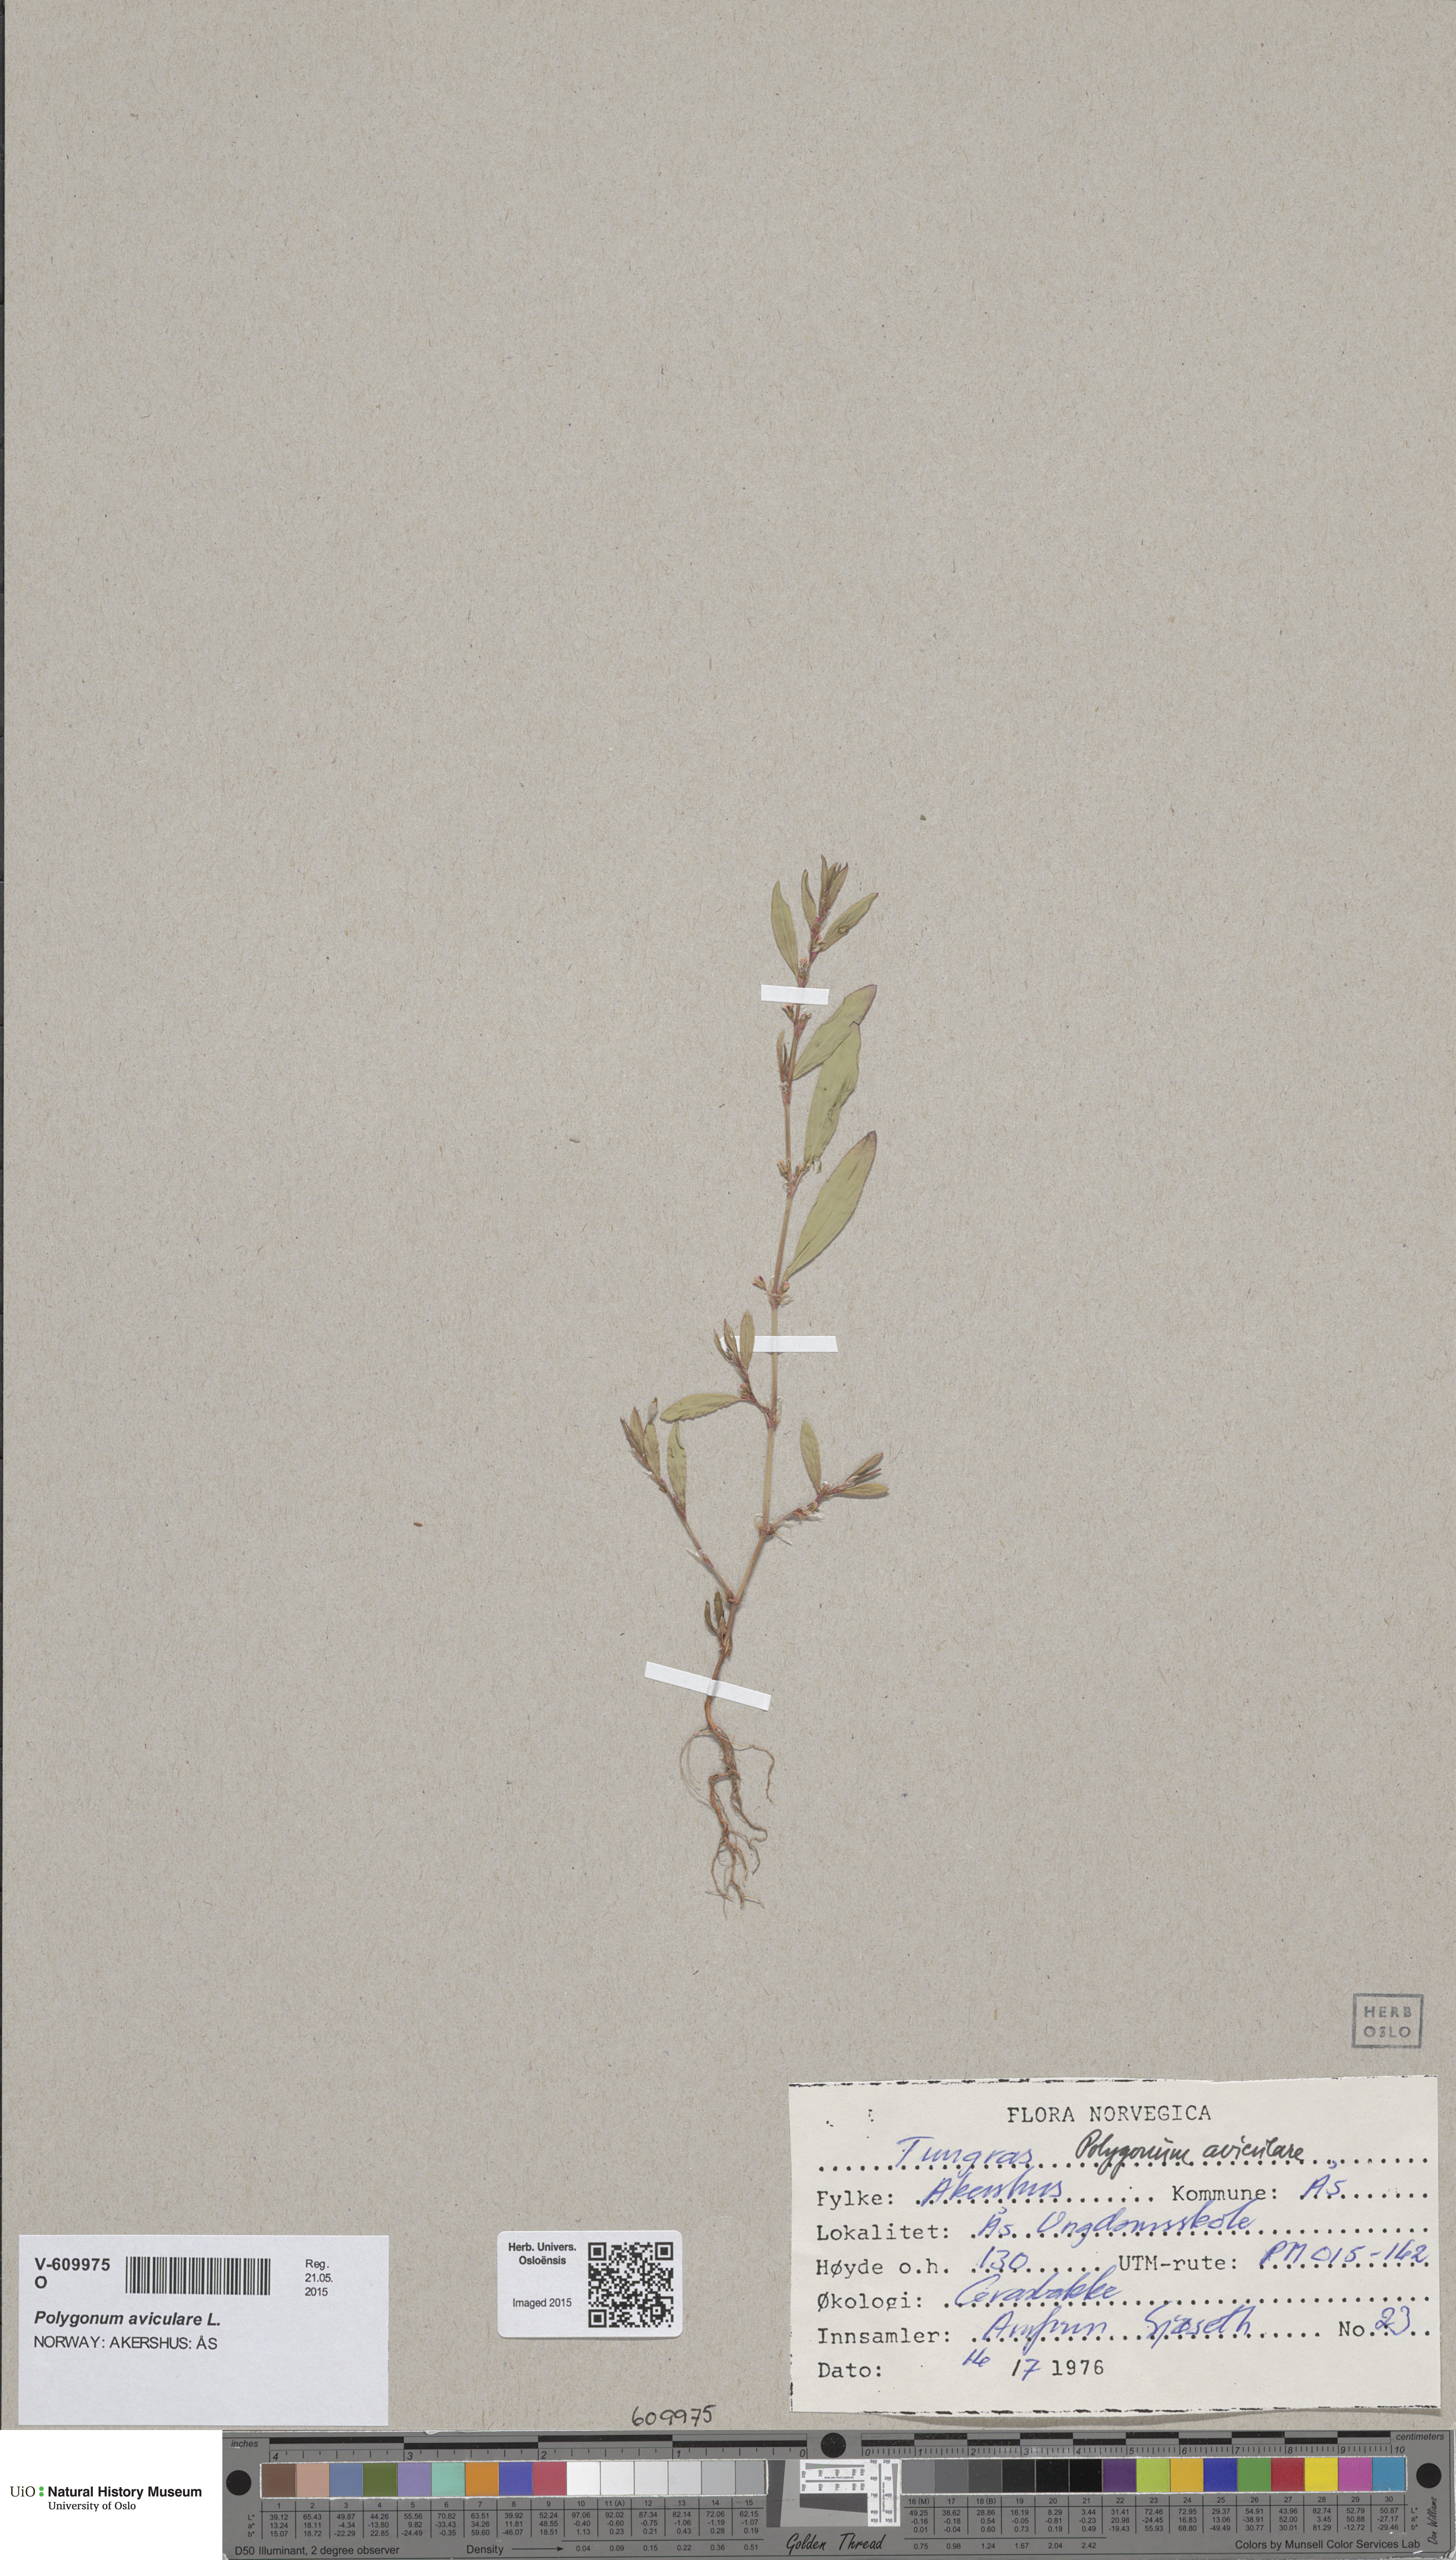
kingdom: Plantae
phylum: Tracheophyta
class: Magnoliopsida
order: Caryophyllales
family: Polygonaceae
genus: Polygonum
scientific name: Polygonum aviculare
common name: Prostrate knotweed
